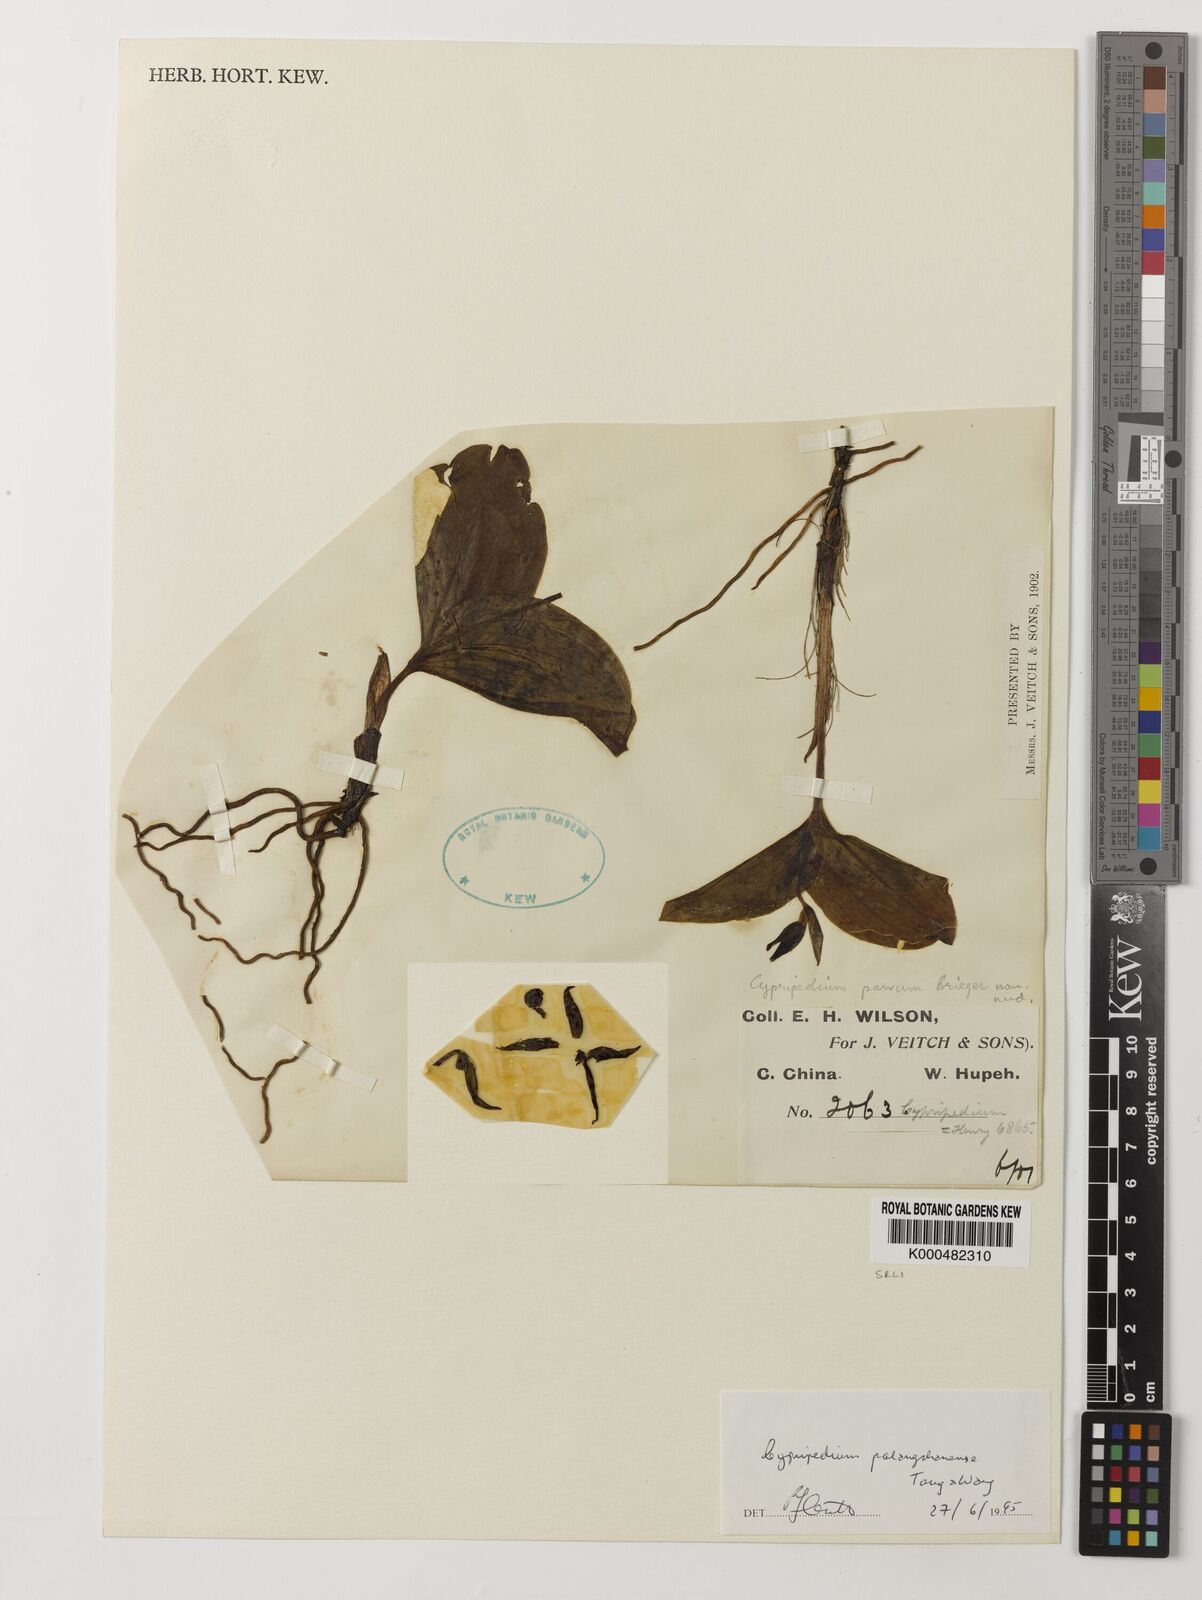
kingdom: Plantae
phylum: Tracheophyta
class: Liliopsida
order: Asparagales
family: Orchidaceae
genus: Cypripedium
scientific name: Cypripedium palangshanense
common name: Palangshan cypripedium
